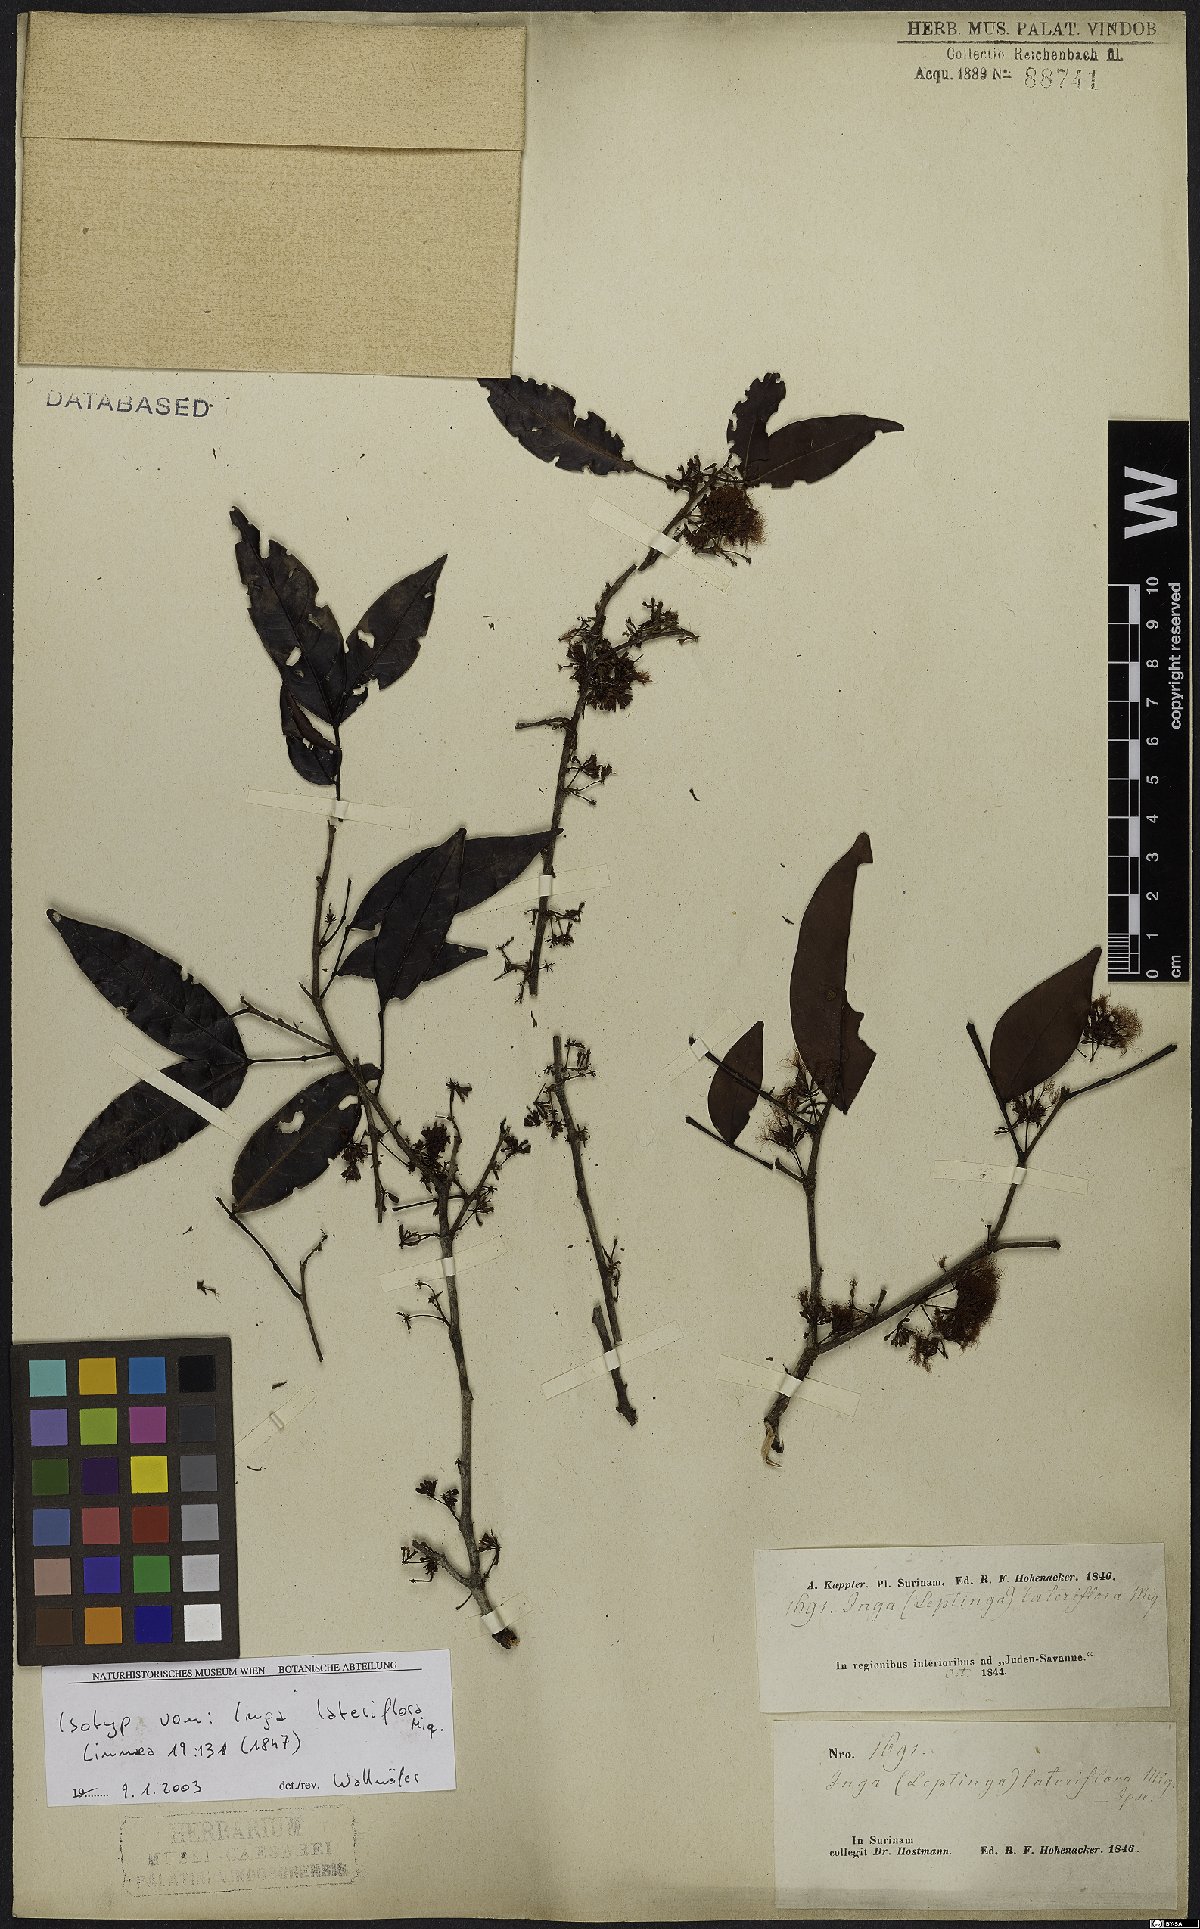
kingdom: Plantae
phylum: Tracheophyta
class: Magnoliopsida
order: Fabales
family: Fabaceae
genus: Inga
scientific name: Inga lateriflora
